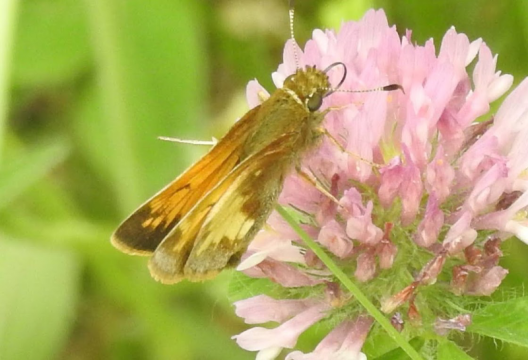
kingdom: Animalia
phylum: Arthropoda
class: Insecta
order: Lepidoptera
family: Hesperiidae
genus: Lon
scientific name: Lon hobomok
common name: Hobomok Skipper
